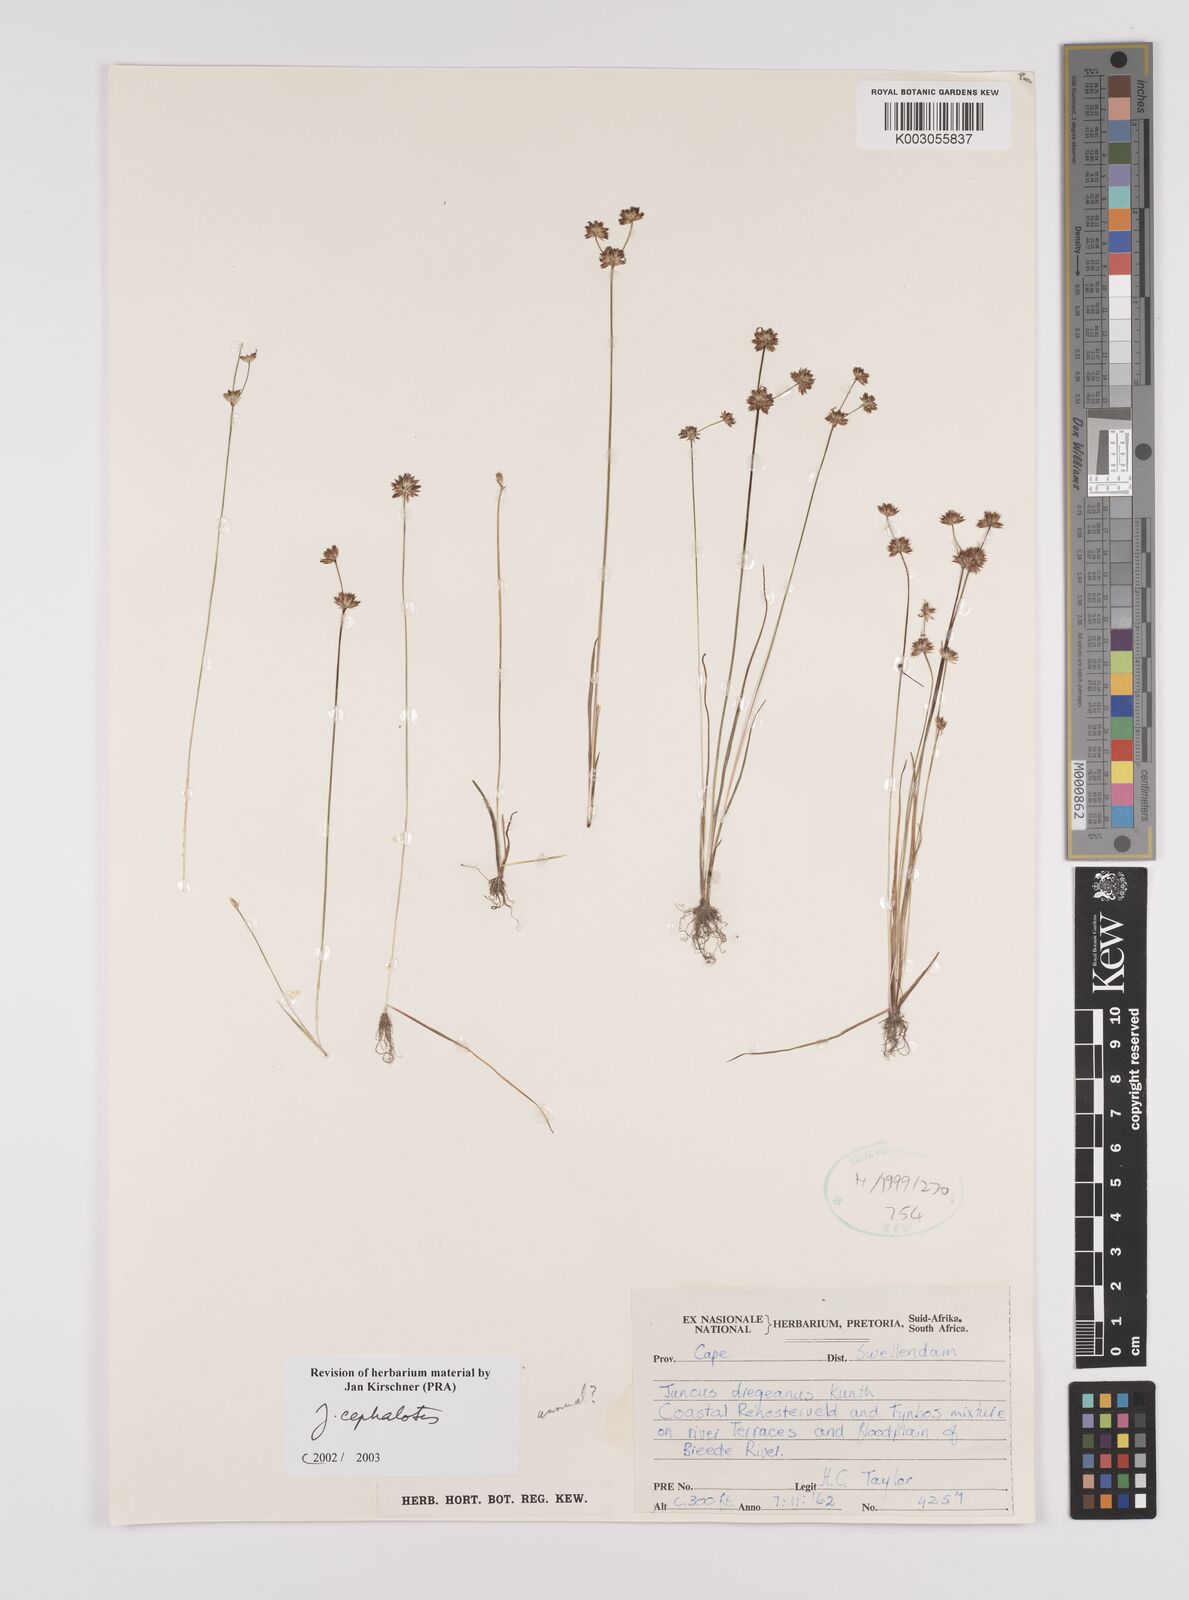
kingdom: Plantae
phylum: Tracheophyta
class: Liliopsida
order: Poales
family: Juncaceae
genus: Juncus
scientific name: Juncus cephalotes
